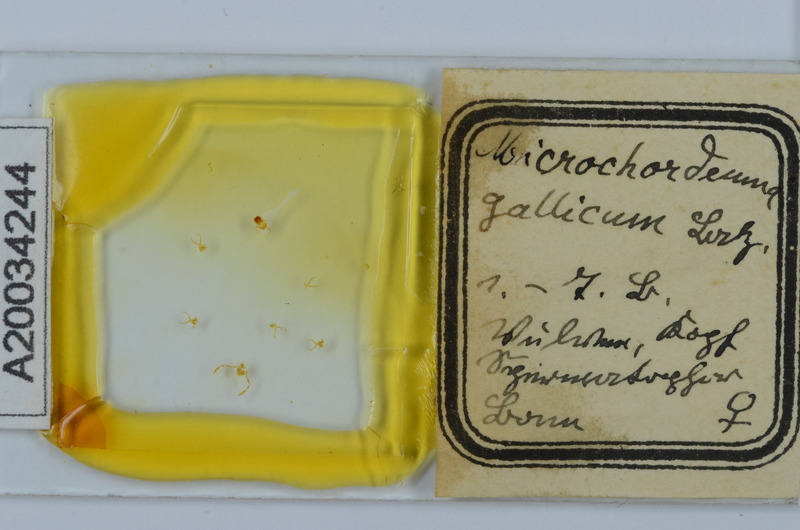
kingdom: Animalia
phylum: Arthropoda
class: Diplopoda
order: Chordeumatida
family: Chordeumatidae
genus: Melogona
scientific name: Melogona gallica
